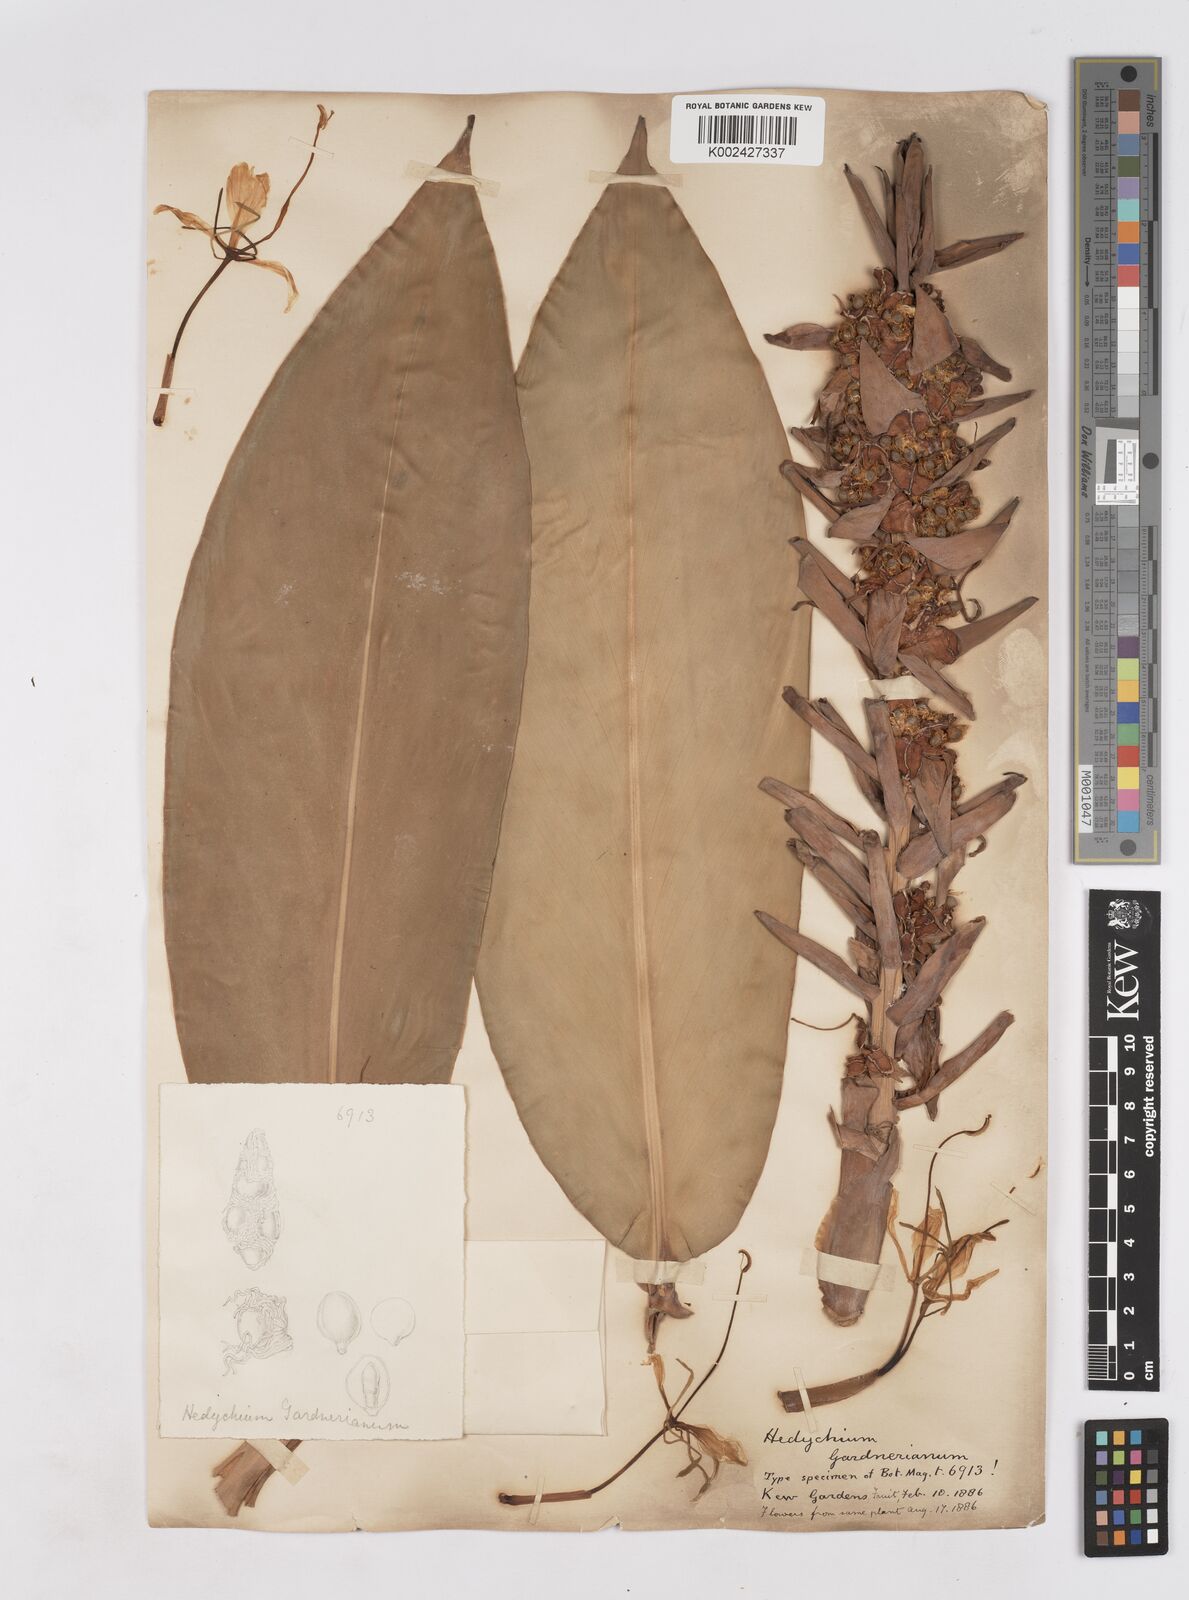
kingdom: Plantae
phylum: Tracheophyta
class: Liliopsida
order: Zingiberales
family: Zingiberaceae
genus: Hedychium
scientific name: Hedychium gardnerianum
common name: Himalayan ginger
